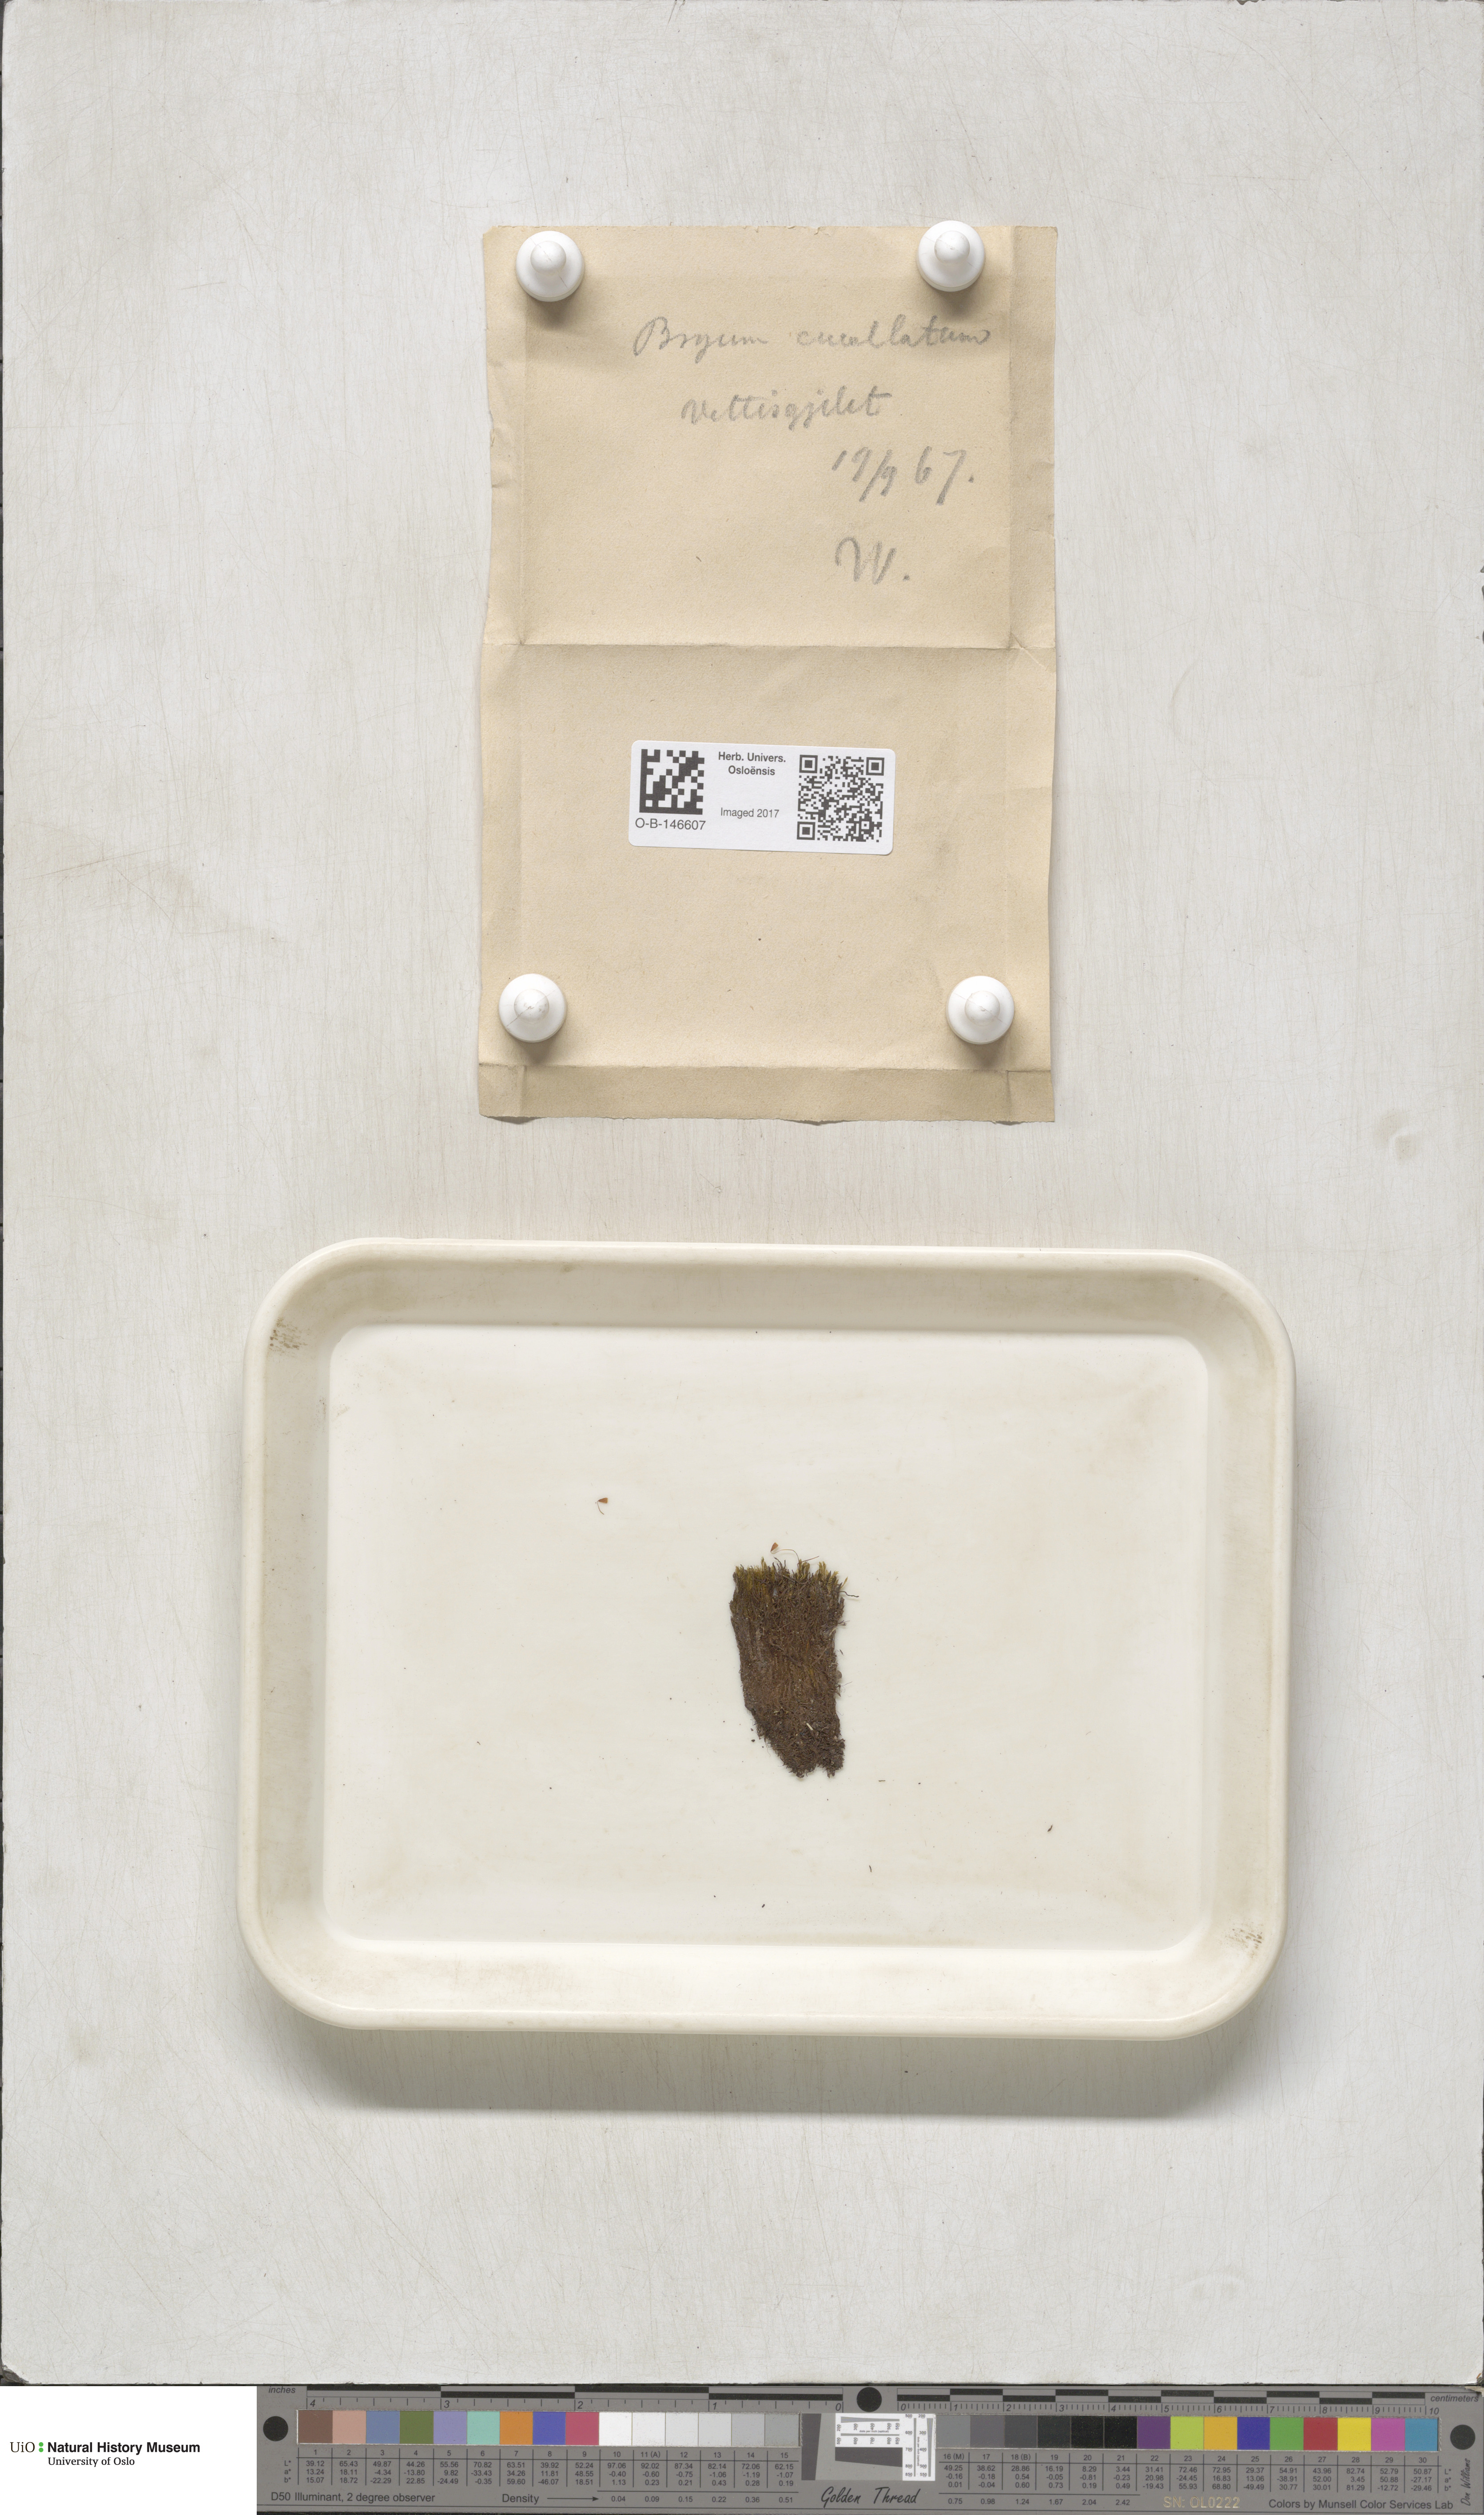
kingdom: Plantae
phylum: Bryophyta
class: Bryopsida
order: Bryales
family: Mniaceae
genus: Pohlia
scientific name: Pohlia obtusifolia
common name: Blunt nodding moss
